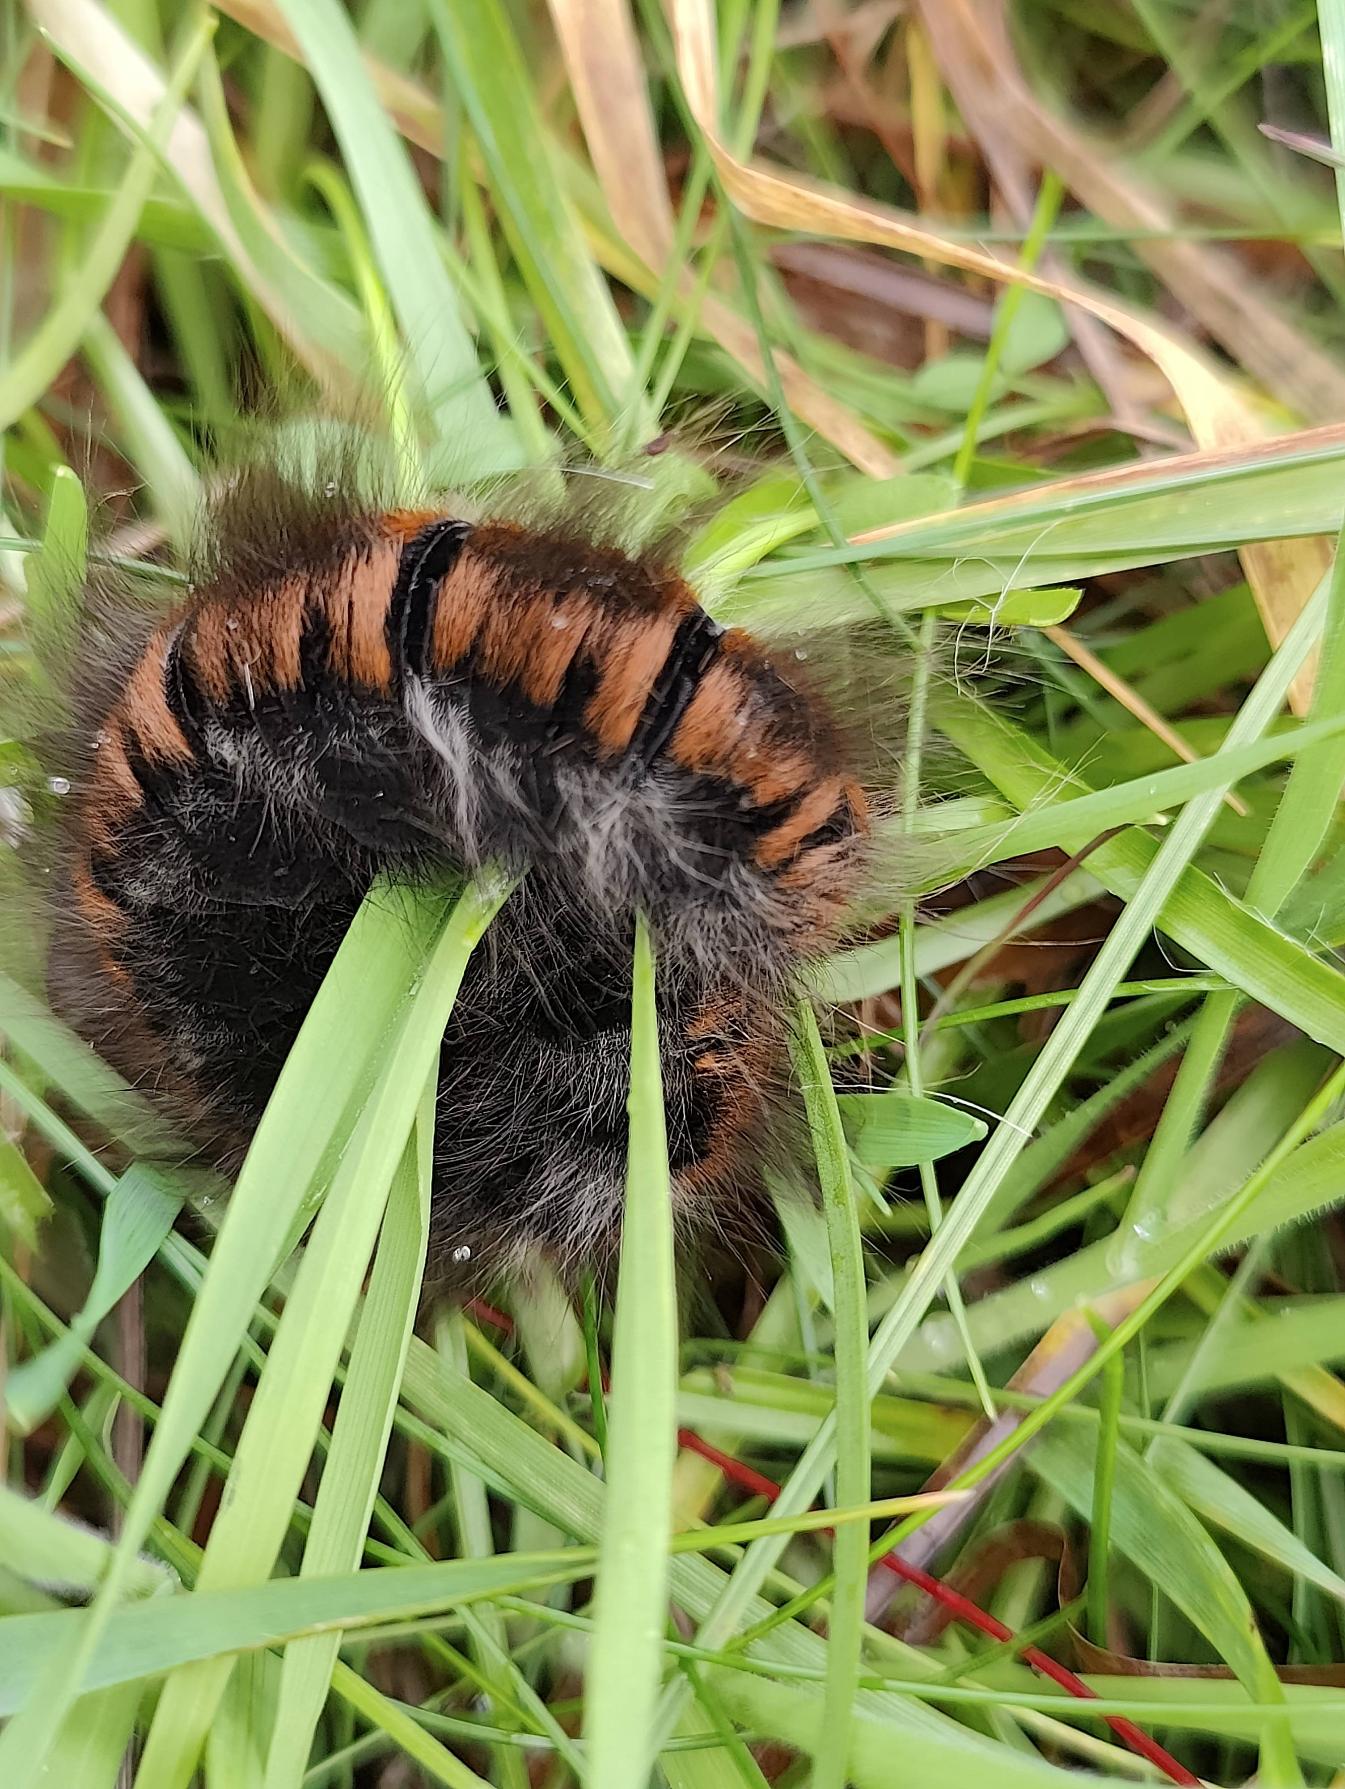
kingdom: Animalia
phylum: Arthropoda
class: Insecta
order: Lepidoptera
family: Lasiocampidae
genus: Macrothylacia
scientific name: Macrothylacia rubi
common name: Brombærspinder
